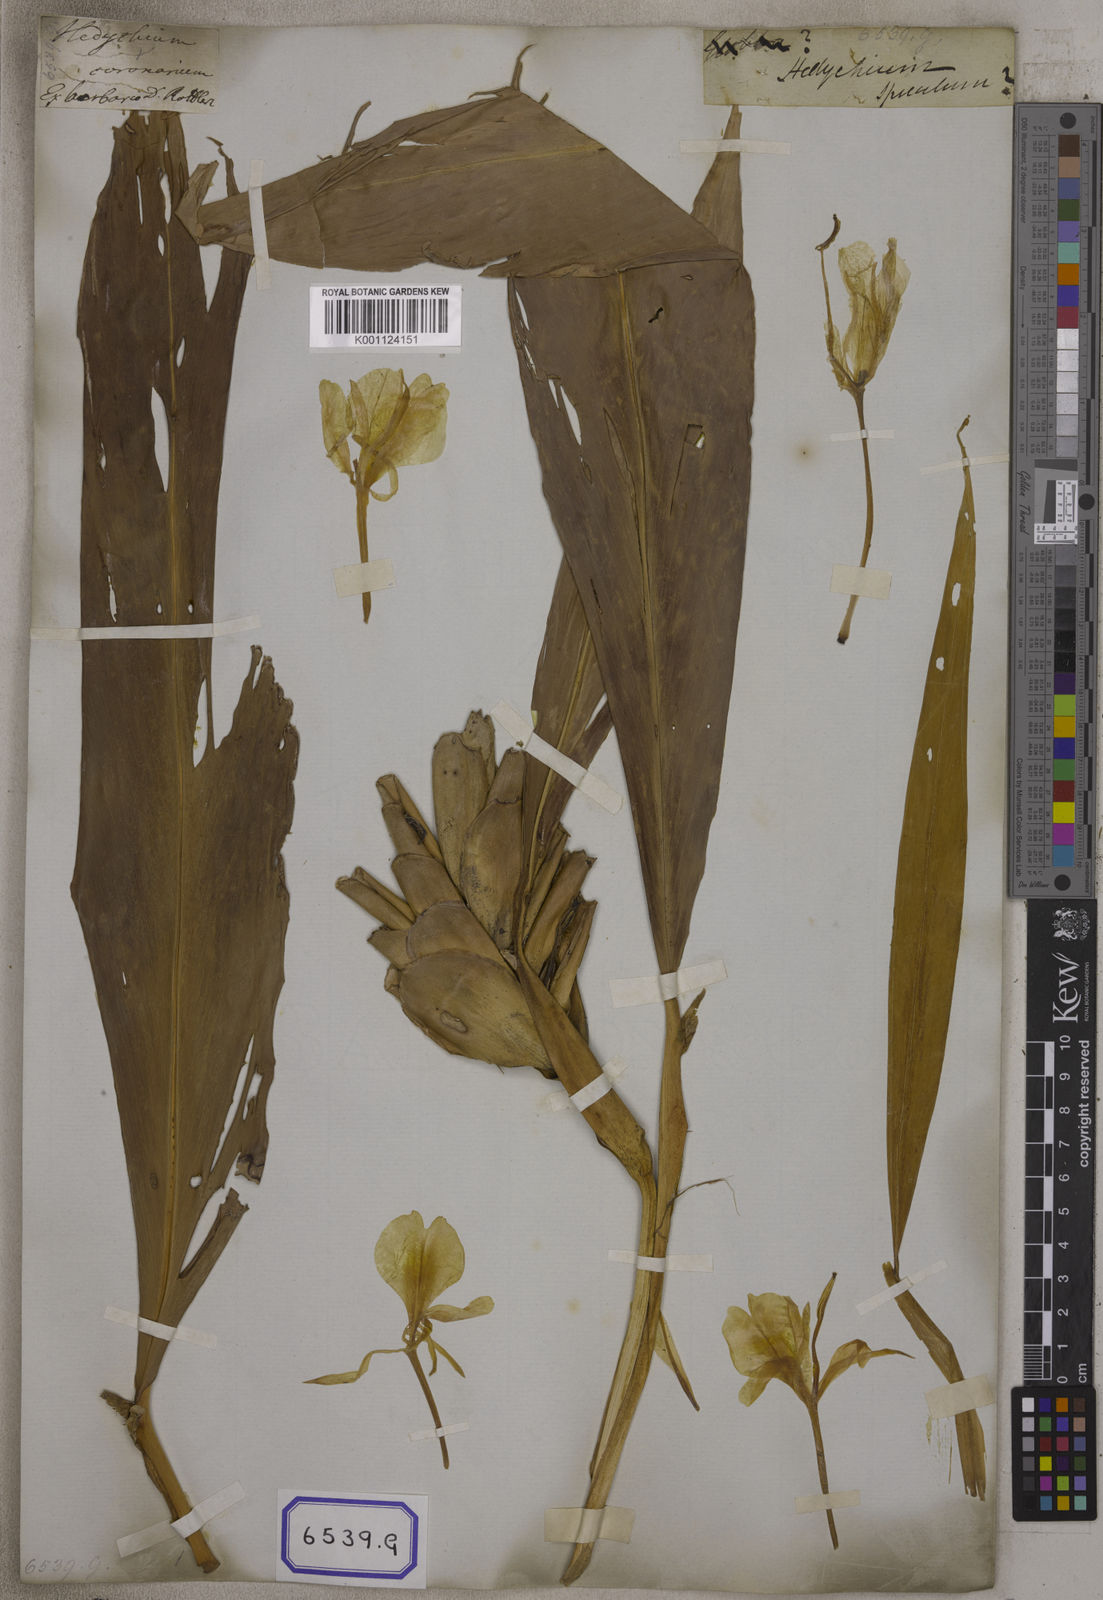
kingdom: Plantae
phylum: Tracheophyta
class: Liliopsida
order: Zingiberales
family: Zingiberaceae
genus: Hedychium
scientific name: Hedychium coronarium
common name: White garland-lily
